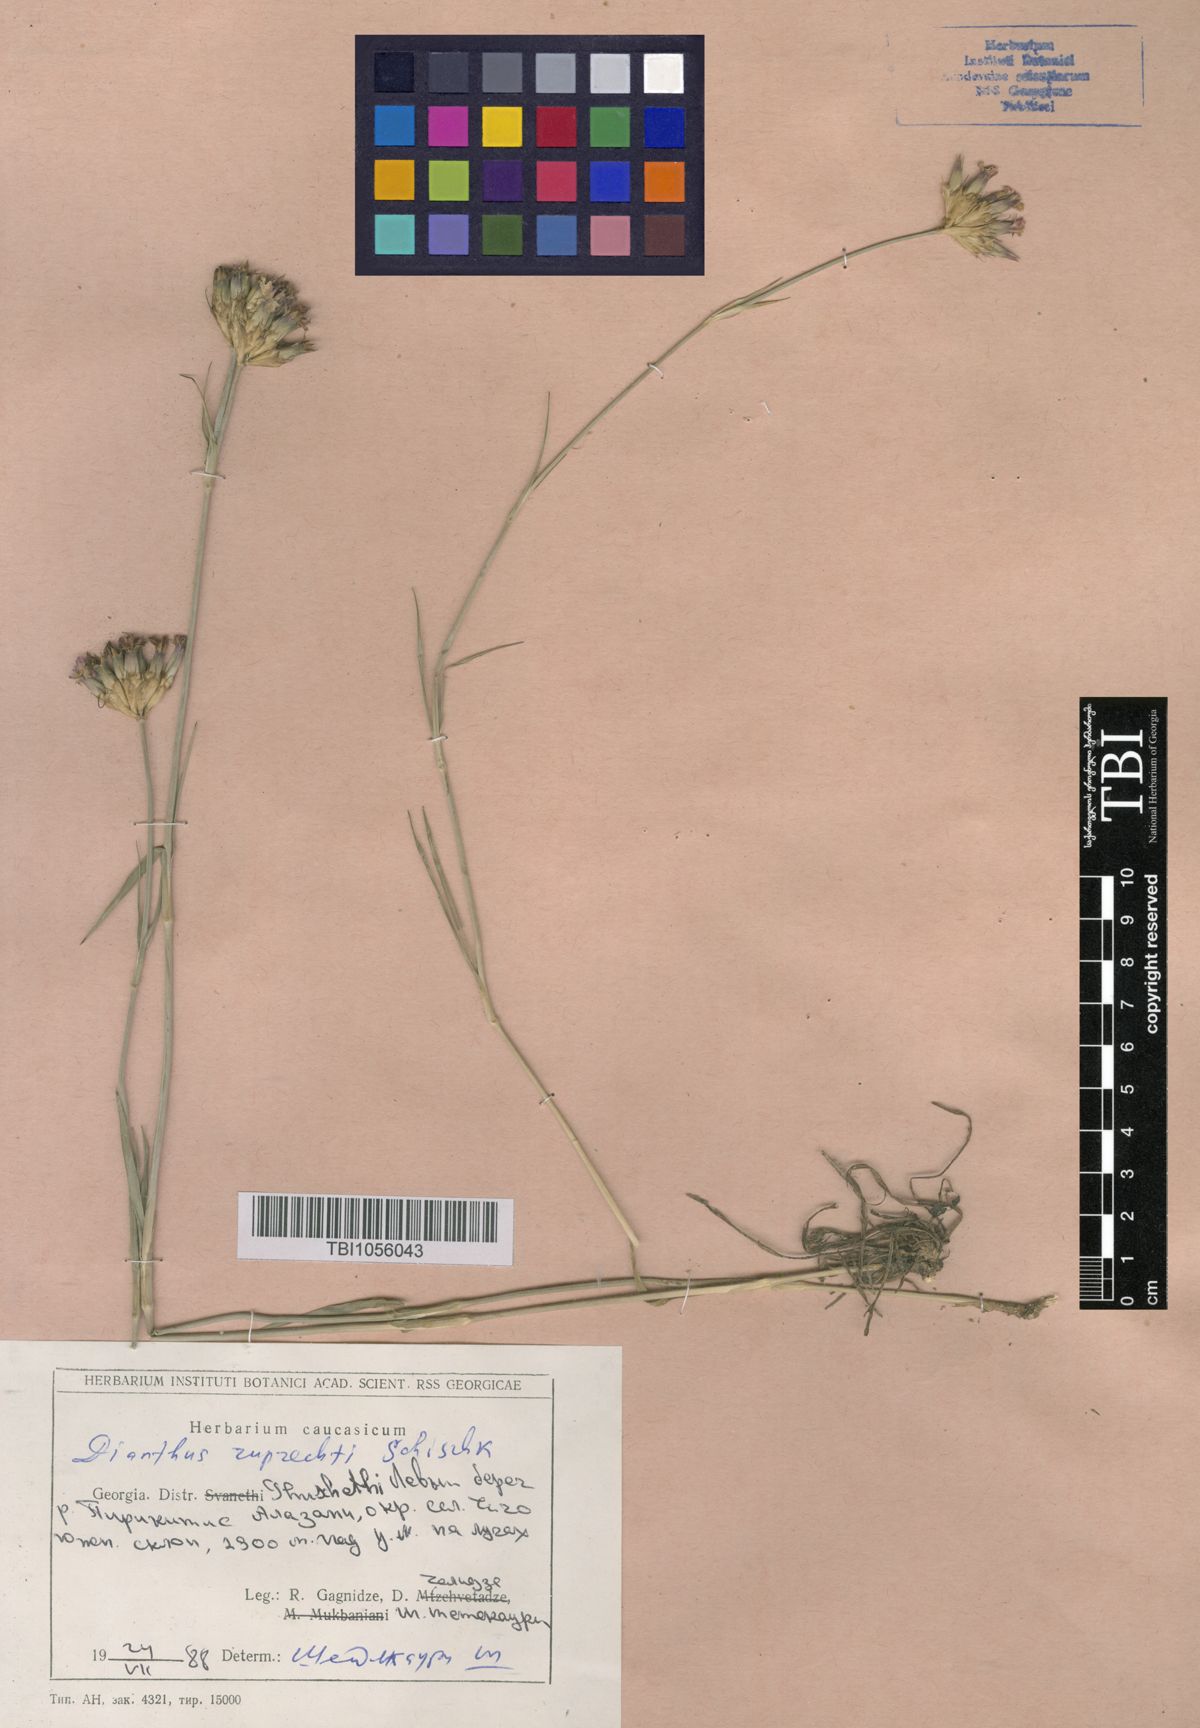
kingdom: Plantae
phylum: Tracheophyta
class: Magnoliopsida
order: Caryophyllales
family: Caryophyllaceae
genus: Dianthus
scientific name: Dianthus ruprechtii
